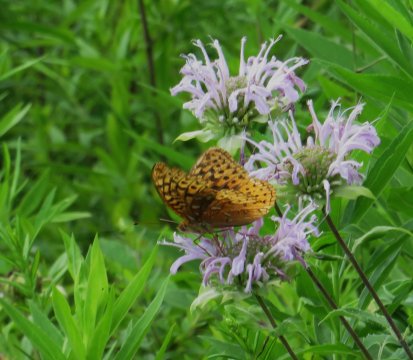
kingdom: Animalia
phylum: Arthropoda
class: Insecta
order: Lepidoptera
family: Nymphalidae
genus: Speyeria
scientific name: Speyeria cybele
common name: Great Spangled Fritillary
